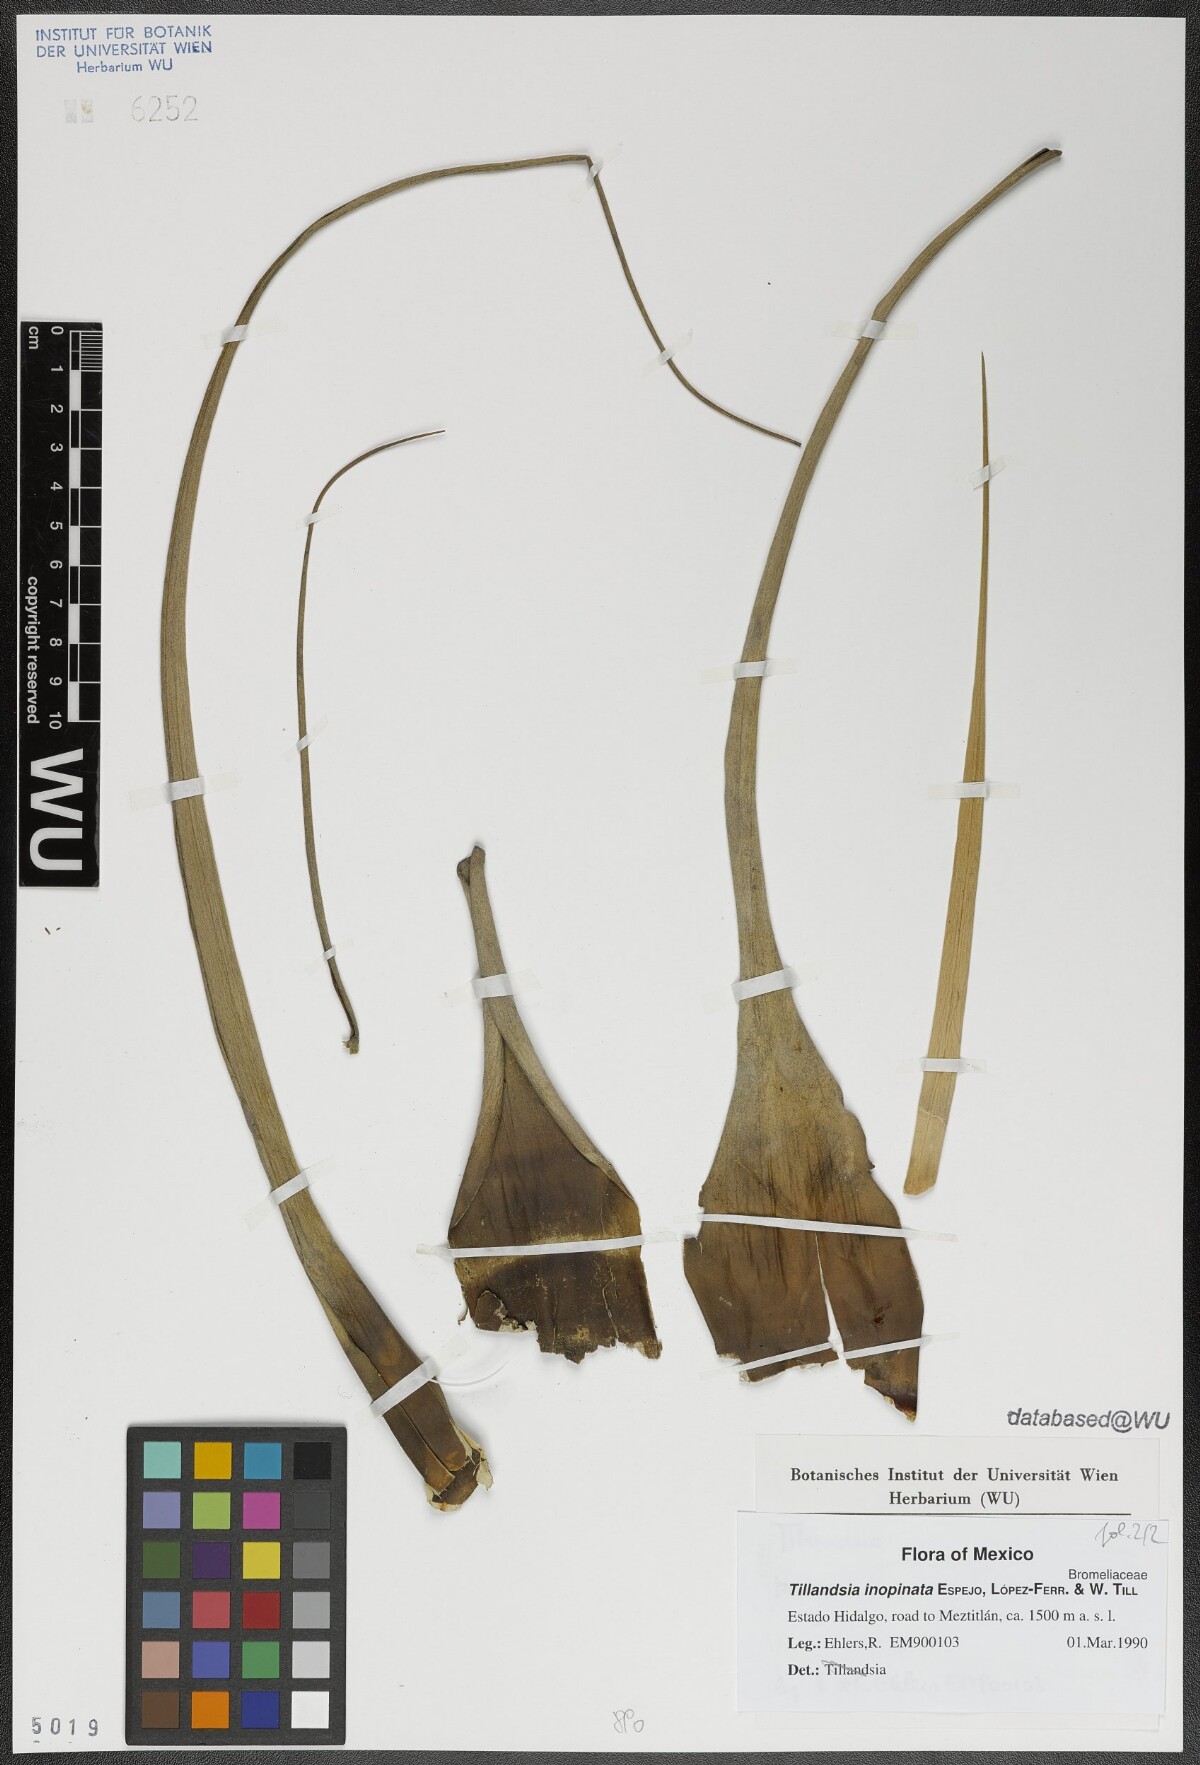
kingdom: Plantae
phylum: Tracheophyta
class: Liliopsida
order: Poales
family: Bromeliaceae
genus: Tillandsia
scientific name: Tillandsia inopinata
